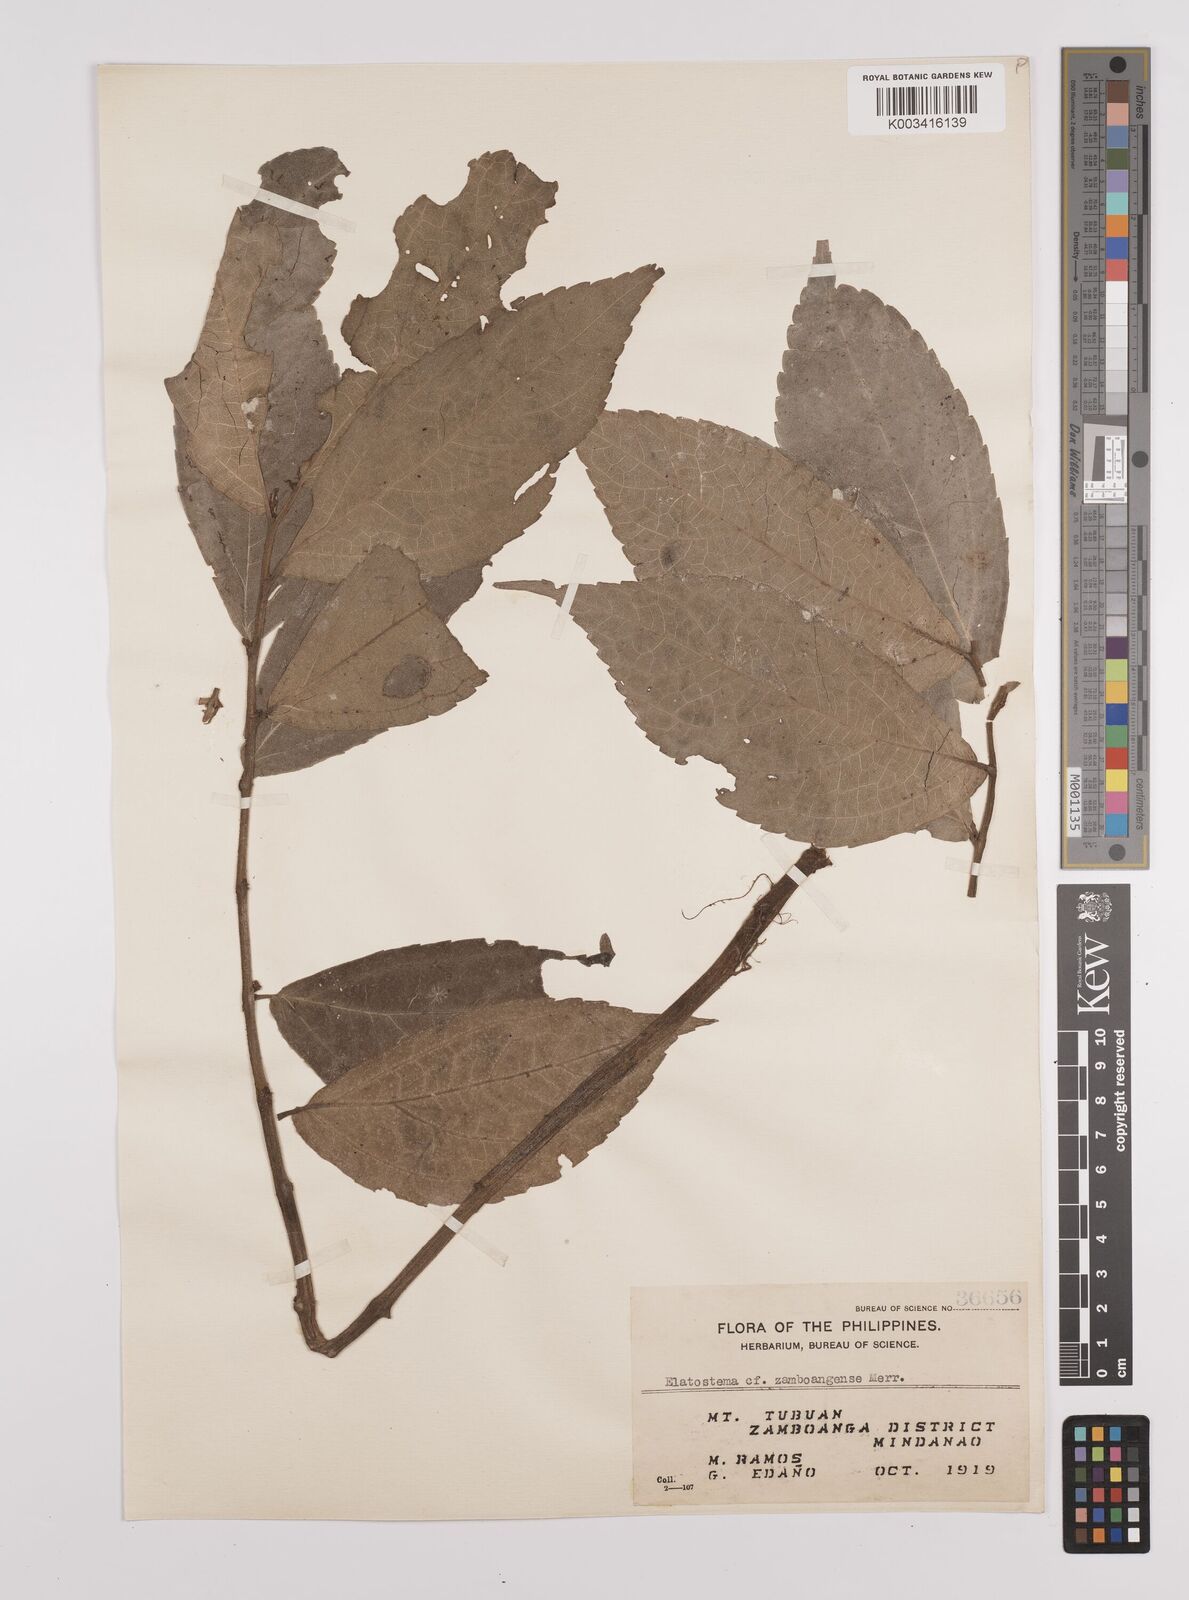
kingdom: Plantae
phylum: Tracheophyta
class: Magnoliopsida
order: Rosales
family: Urticaceae
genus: Elatostema
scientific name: Elatostema zamboangense
